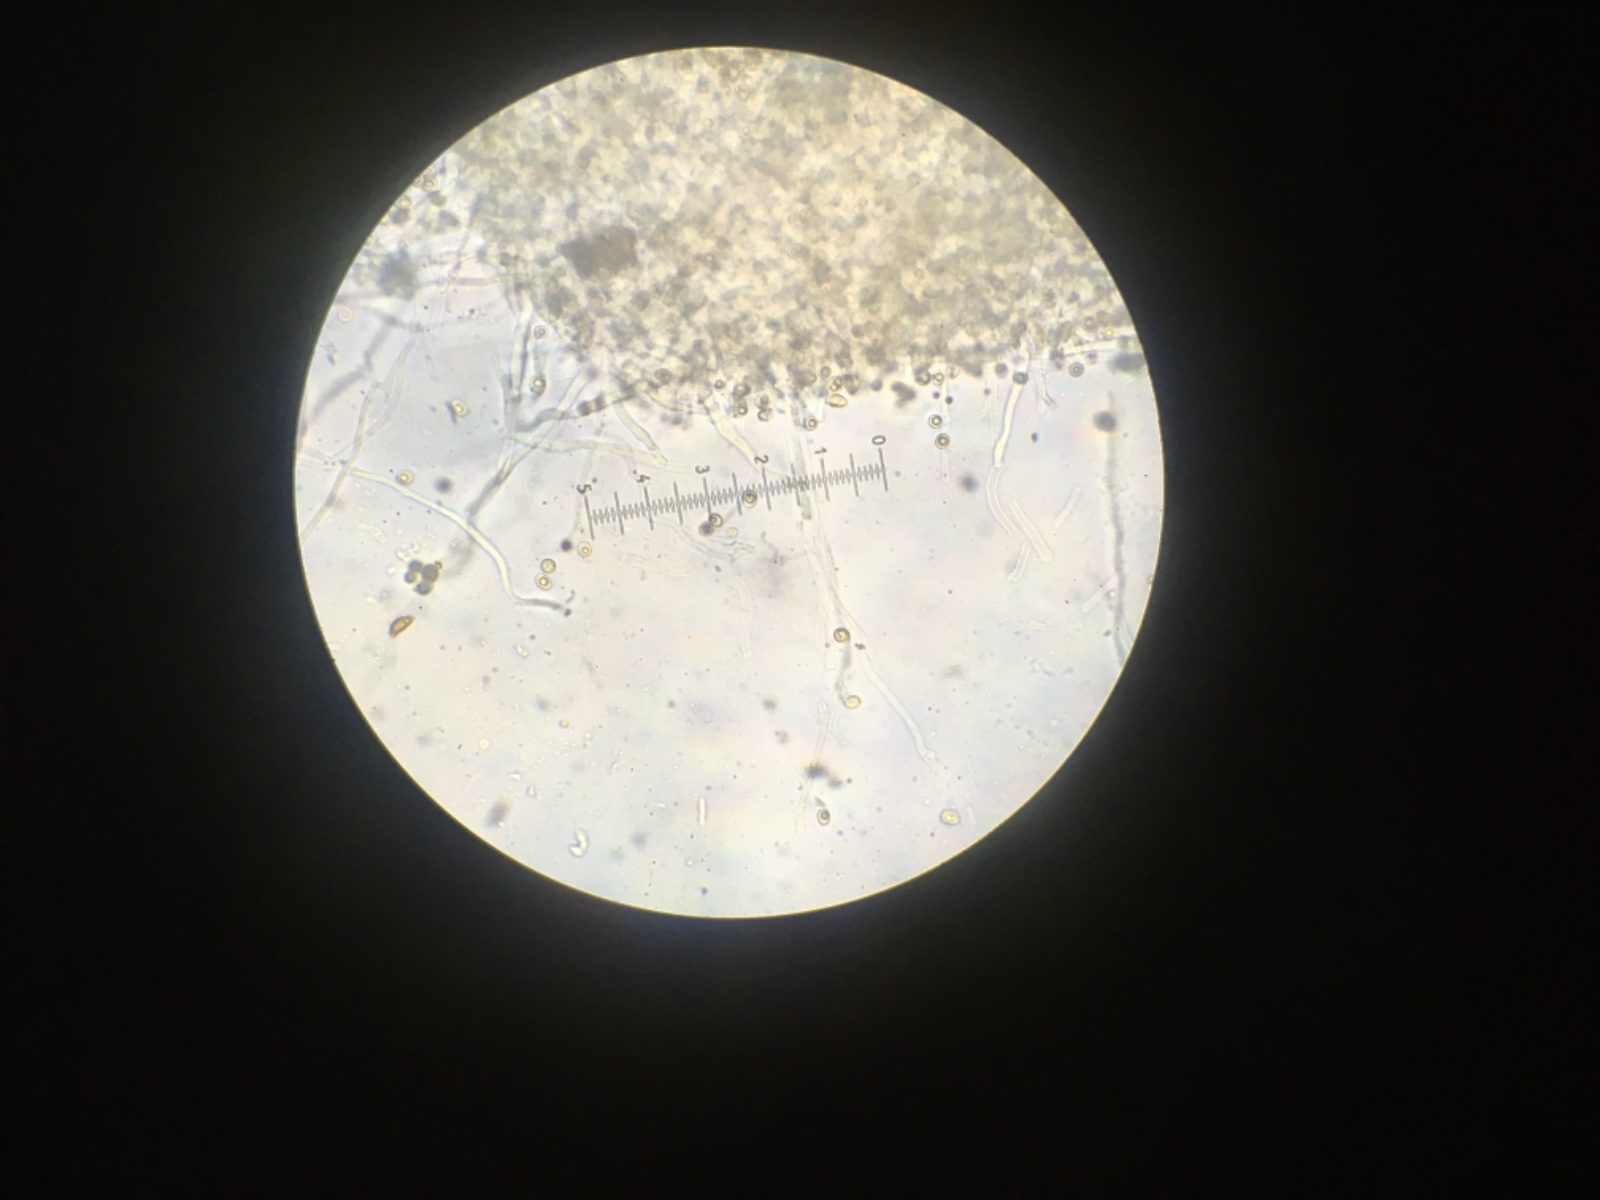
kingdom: Fungi
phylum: Basidiomycota
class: Agaricomycetes
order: Agaricales
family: Crepidotaceae
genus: Crepidotus
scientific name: Crepidotus cesatii
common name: almindelig muslingesvamp
